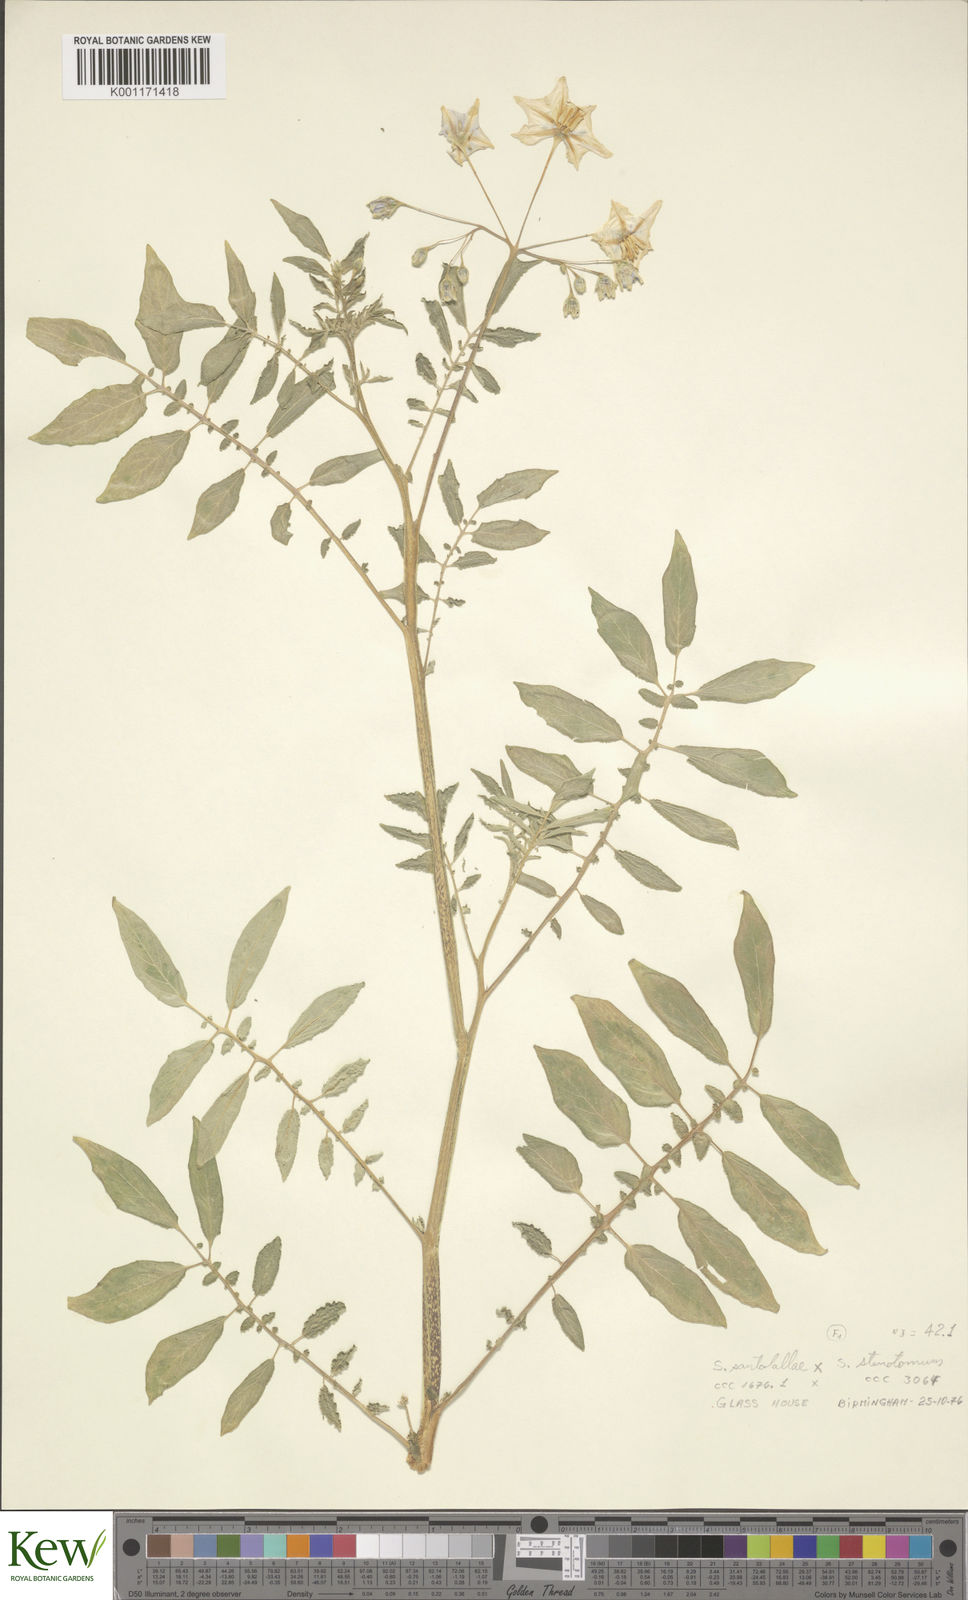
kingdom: Plantae
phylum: Tracheophyta
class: Magnoliopsida
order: Solanales
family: Solanaceae
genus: Solanum
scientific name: Solanum laxissimum
